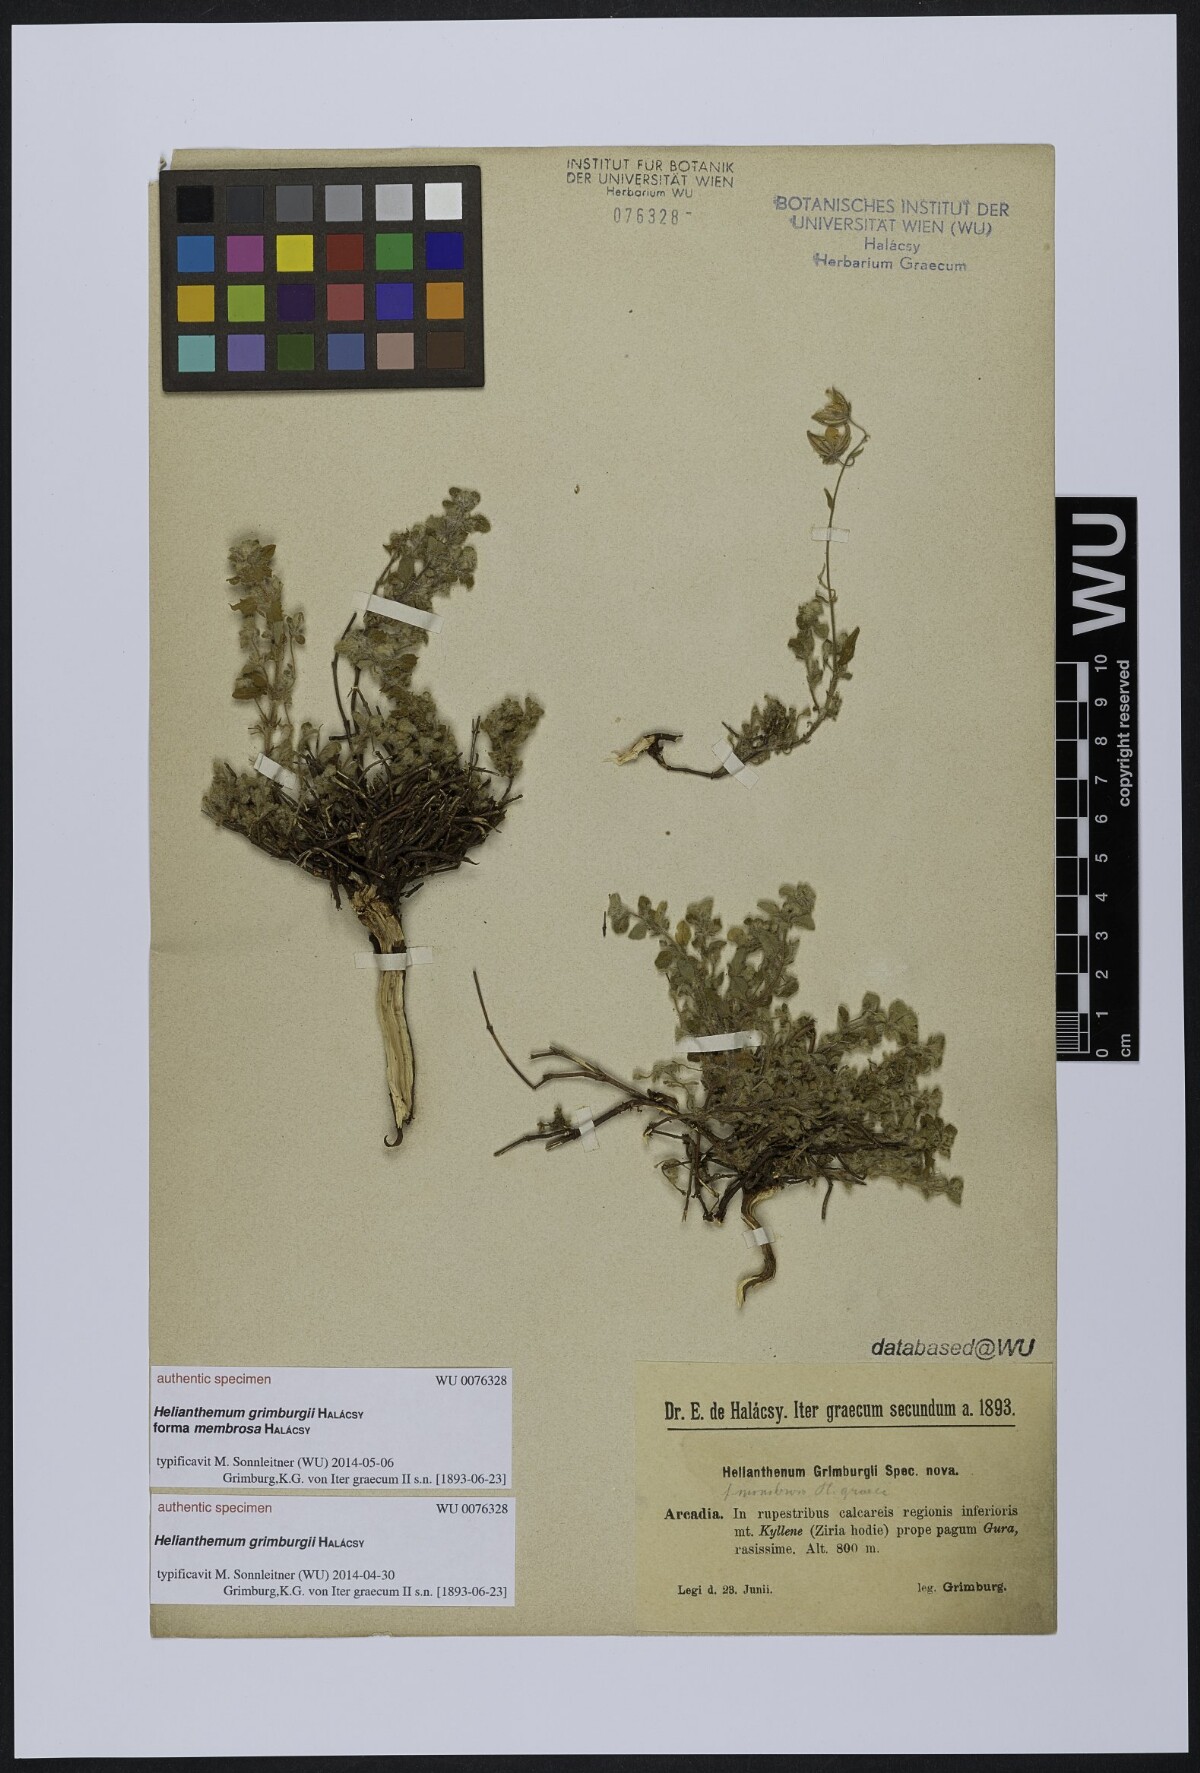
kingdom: Plantae
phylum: Tracheophyta
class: Magnoliopsida
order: Malvales
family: Cistaceae
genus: Helianthemum
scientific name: Helianthemum
